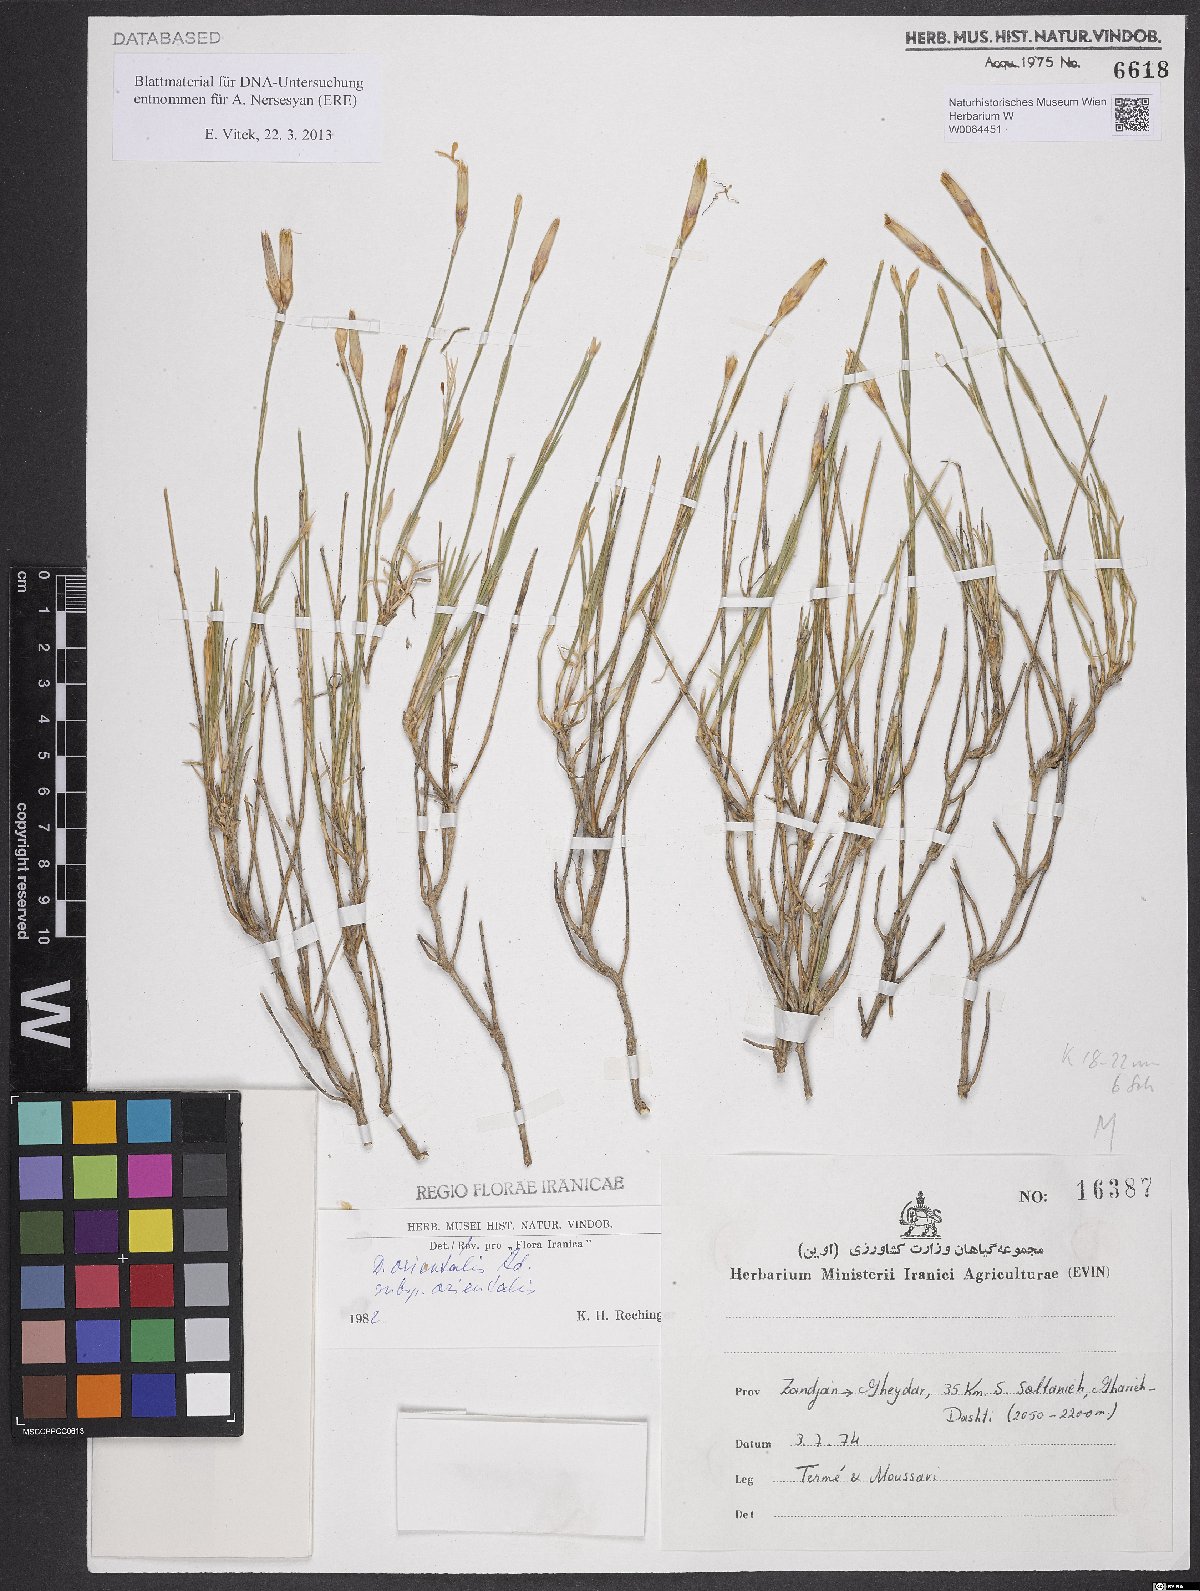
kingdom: Plantae
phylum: Tracheophyta
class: Magnoliopsida
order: Caryophyllales
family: Caryophyllaceae
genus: Dianthus
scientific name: Dianthus orientalis
